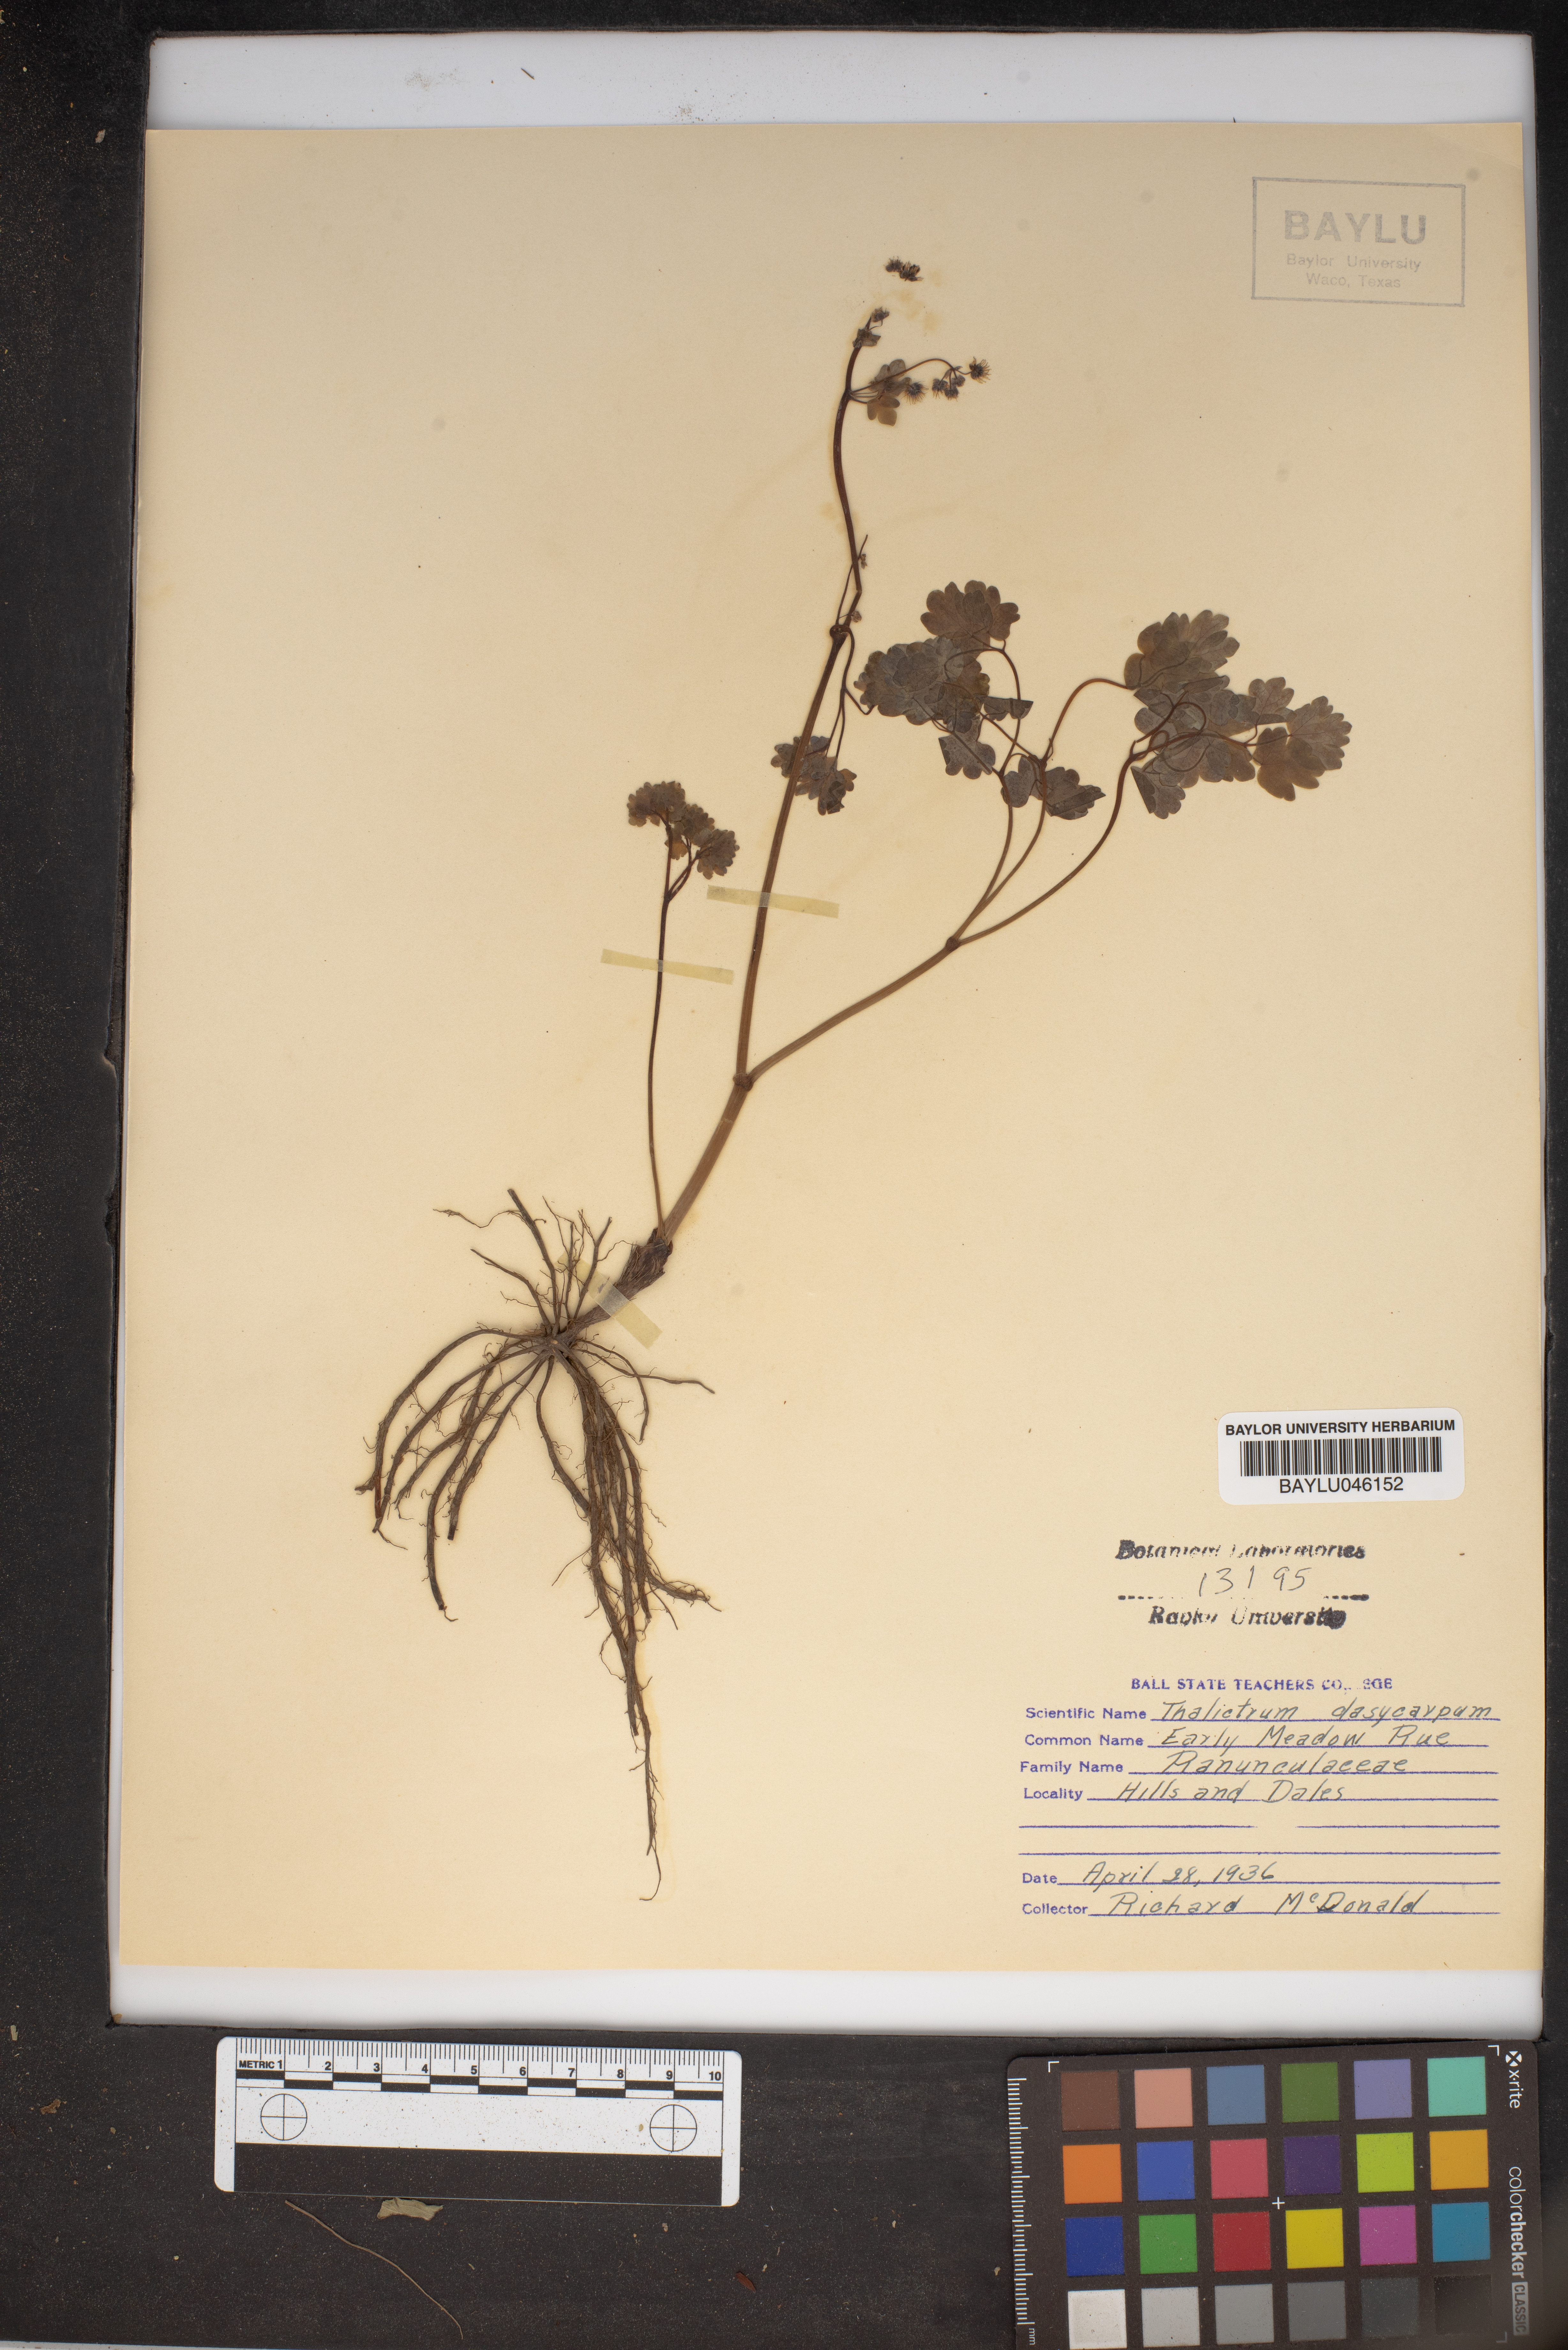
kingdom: Plantae
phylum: Tracheophyta
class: Magnoliopsida
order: Ranunculales
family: Ranunculaceae
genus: Thalictrum
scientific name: Thalictrum dasycarpum
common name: Purple meadow-rue
